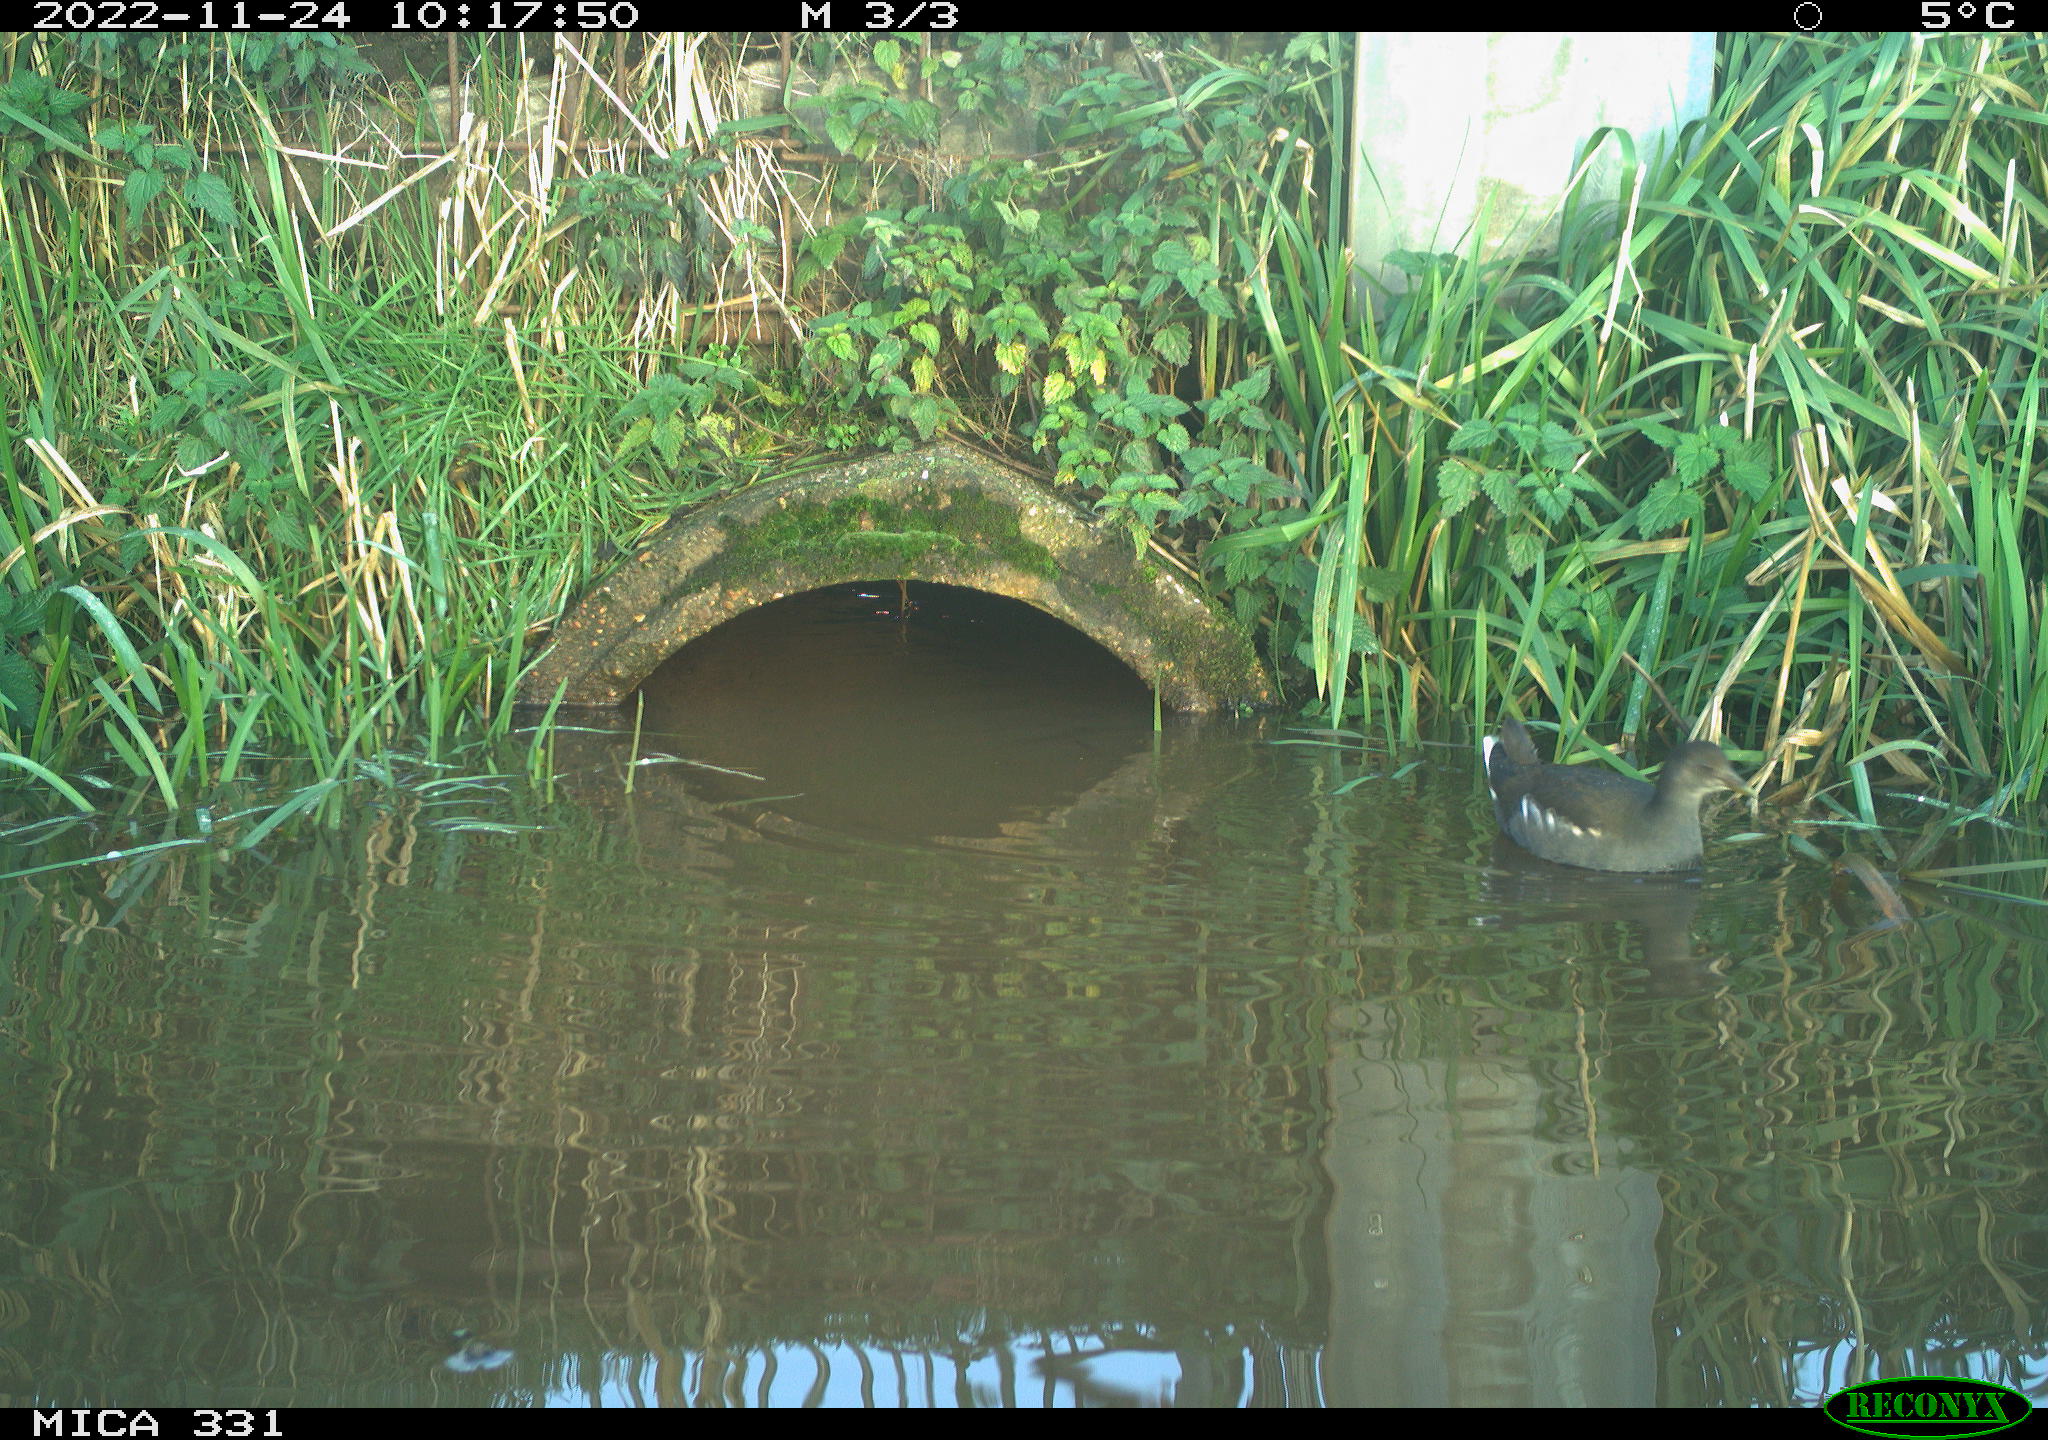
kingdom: Animalia
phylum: Chordata
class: Aves
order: Gruiformes
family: Rallidae
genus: Gallinula
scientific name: Gallinula chloropus
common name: Common moorhen
